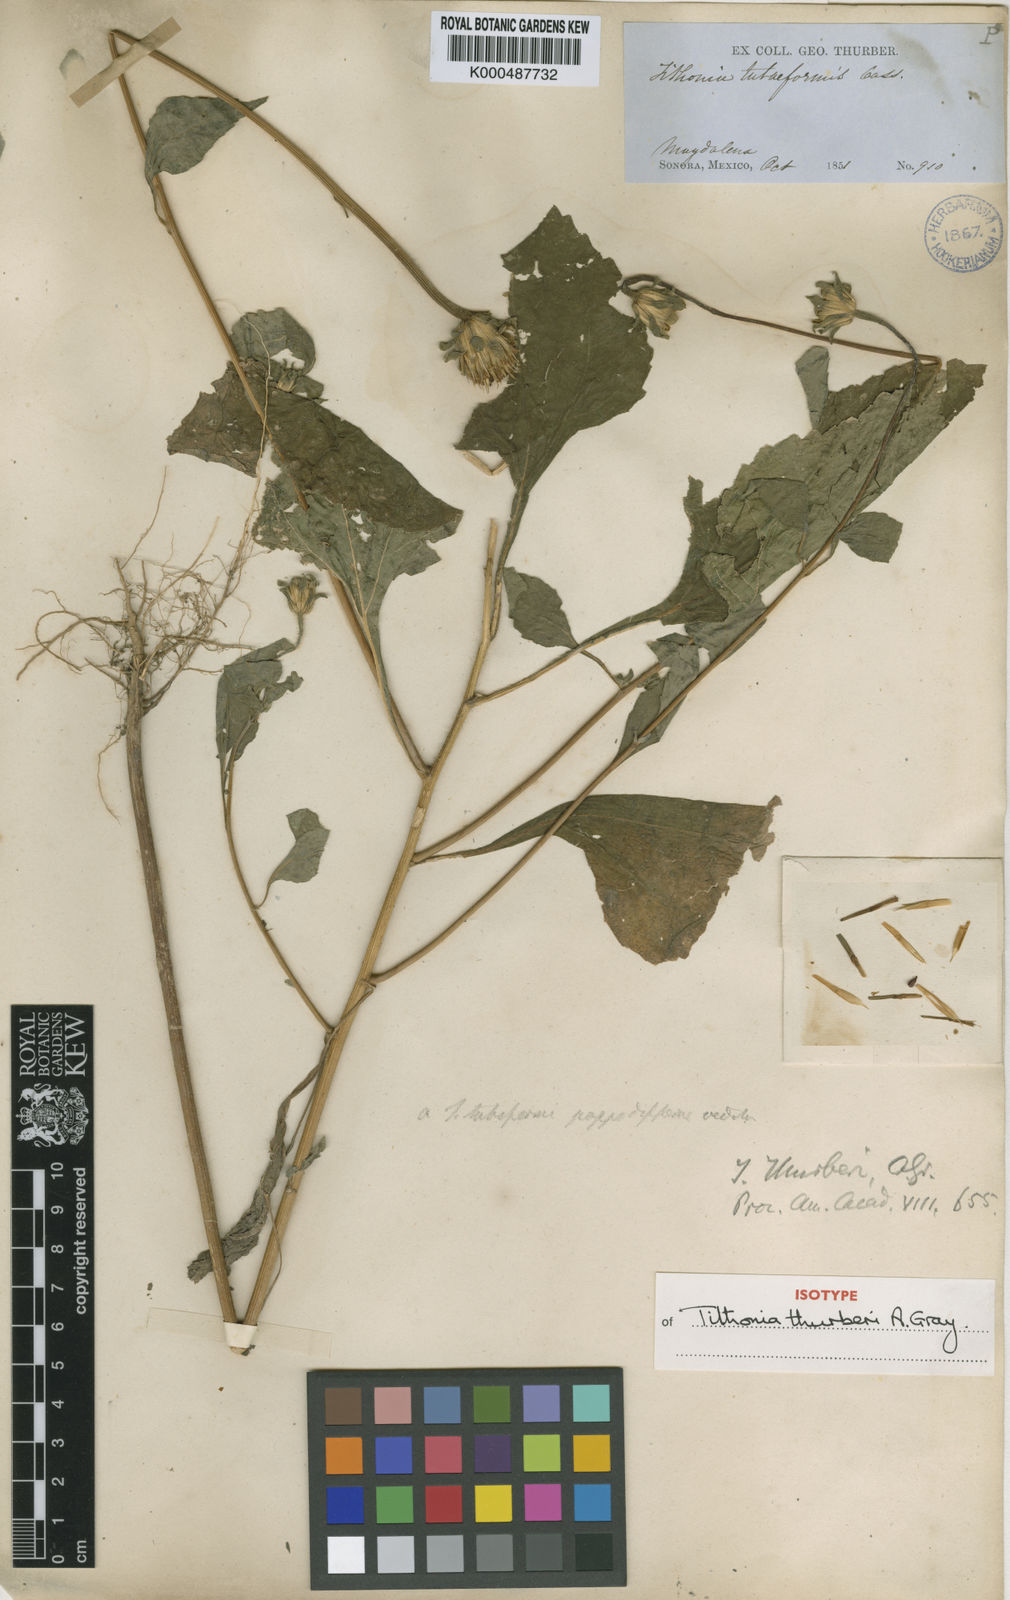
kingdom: Plantae
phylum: Tracheophyta
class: Magnoliopsida
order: Asterales
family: Asteraceae
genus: Tithonia
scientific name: Tithonia thurberi
